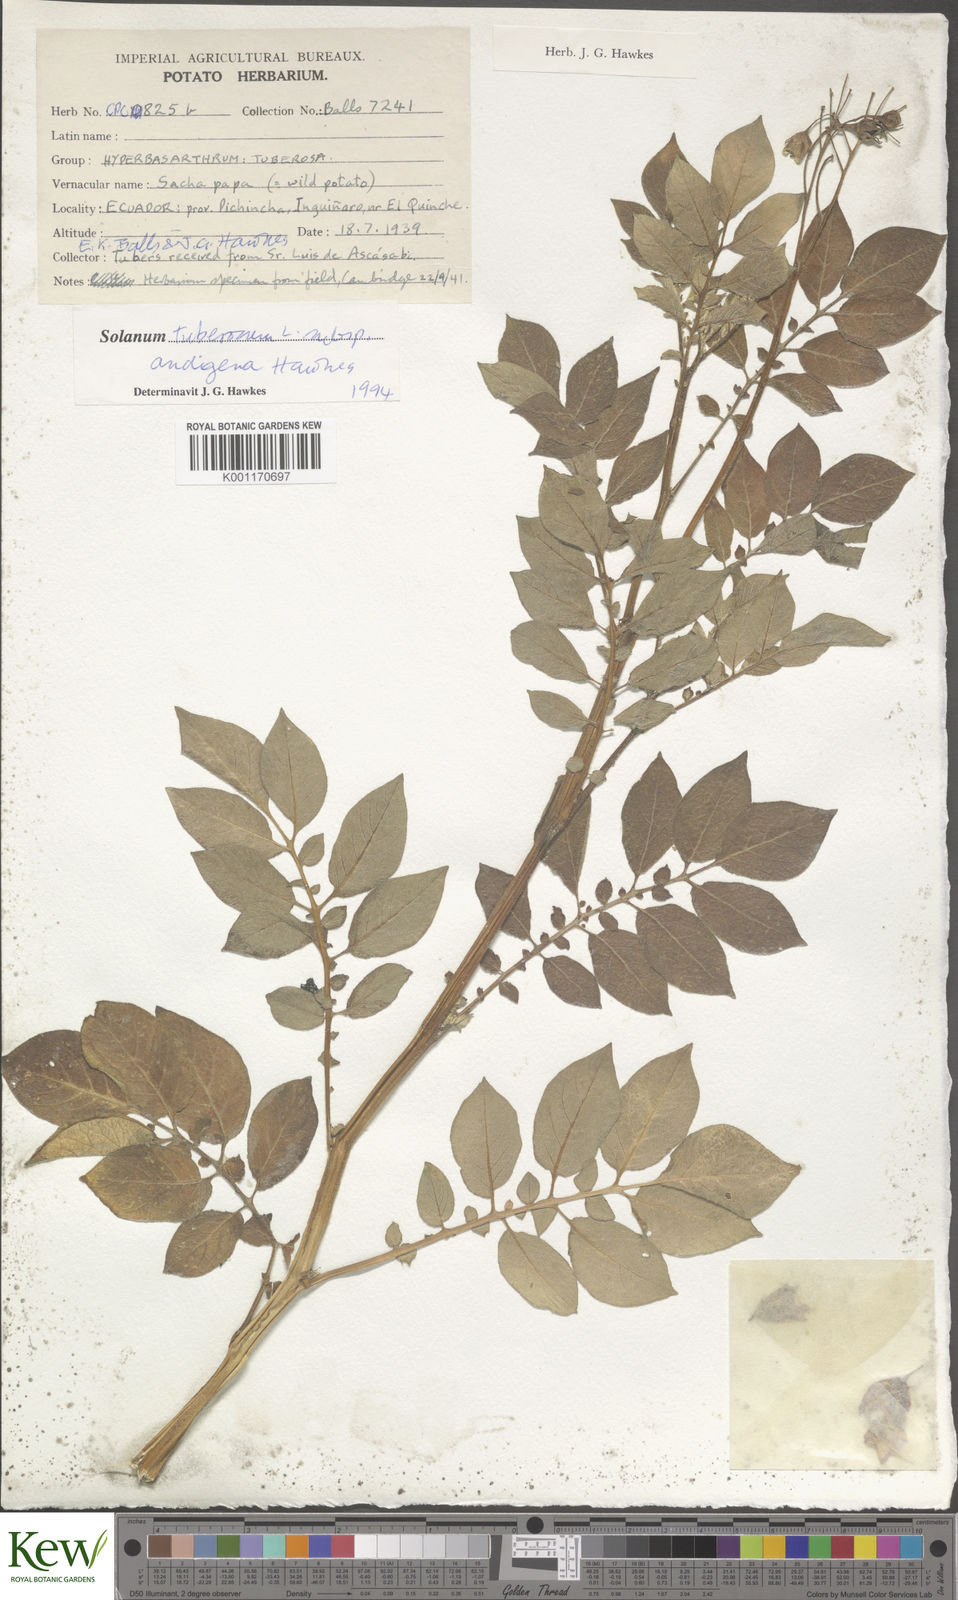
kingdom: Plantae
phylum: Tracheophyta
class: Magnoliopsida
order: Solanales
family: Solanaceae
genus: Solanum
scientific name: Solanum tuberosum
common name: Potato
